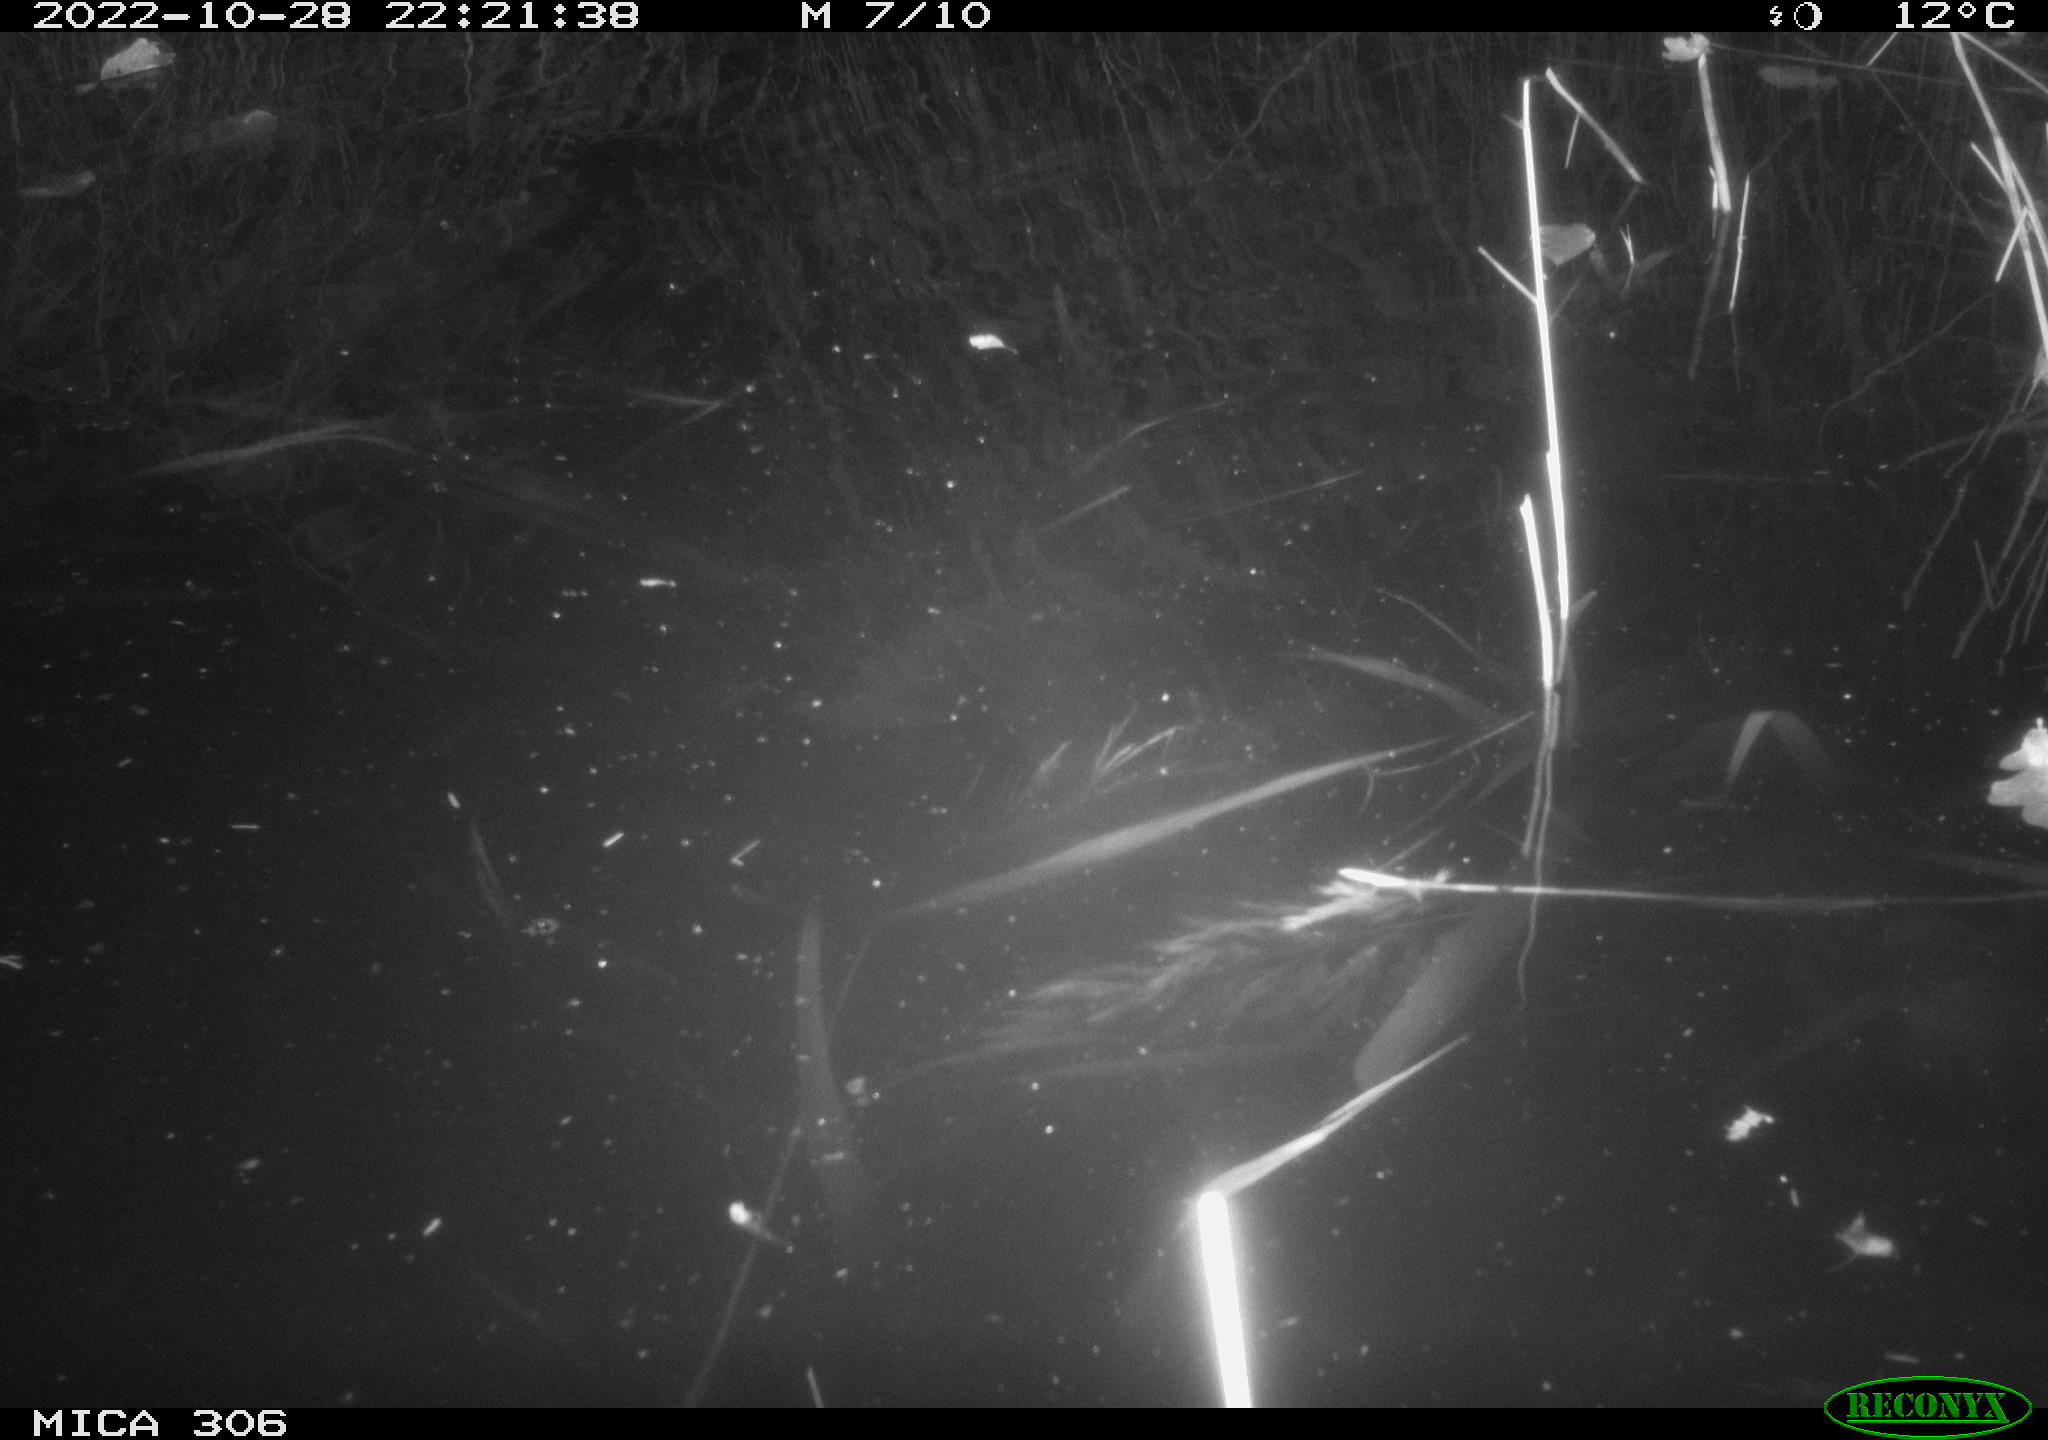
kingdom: Animalia
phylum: Chordata
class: Mammalia
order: Rodentia
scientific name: Rodentia
